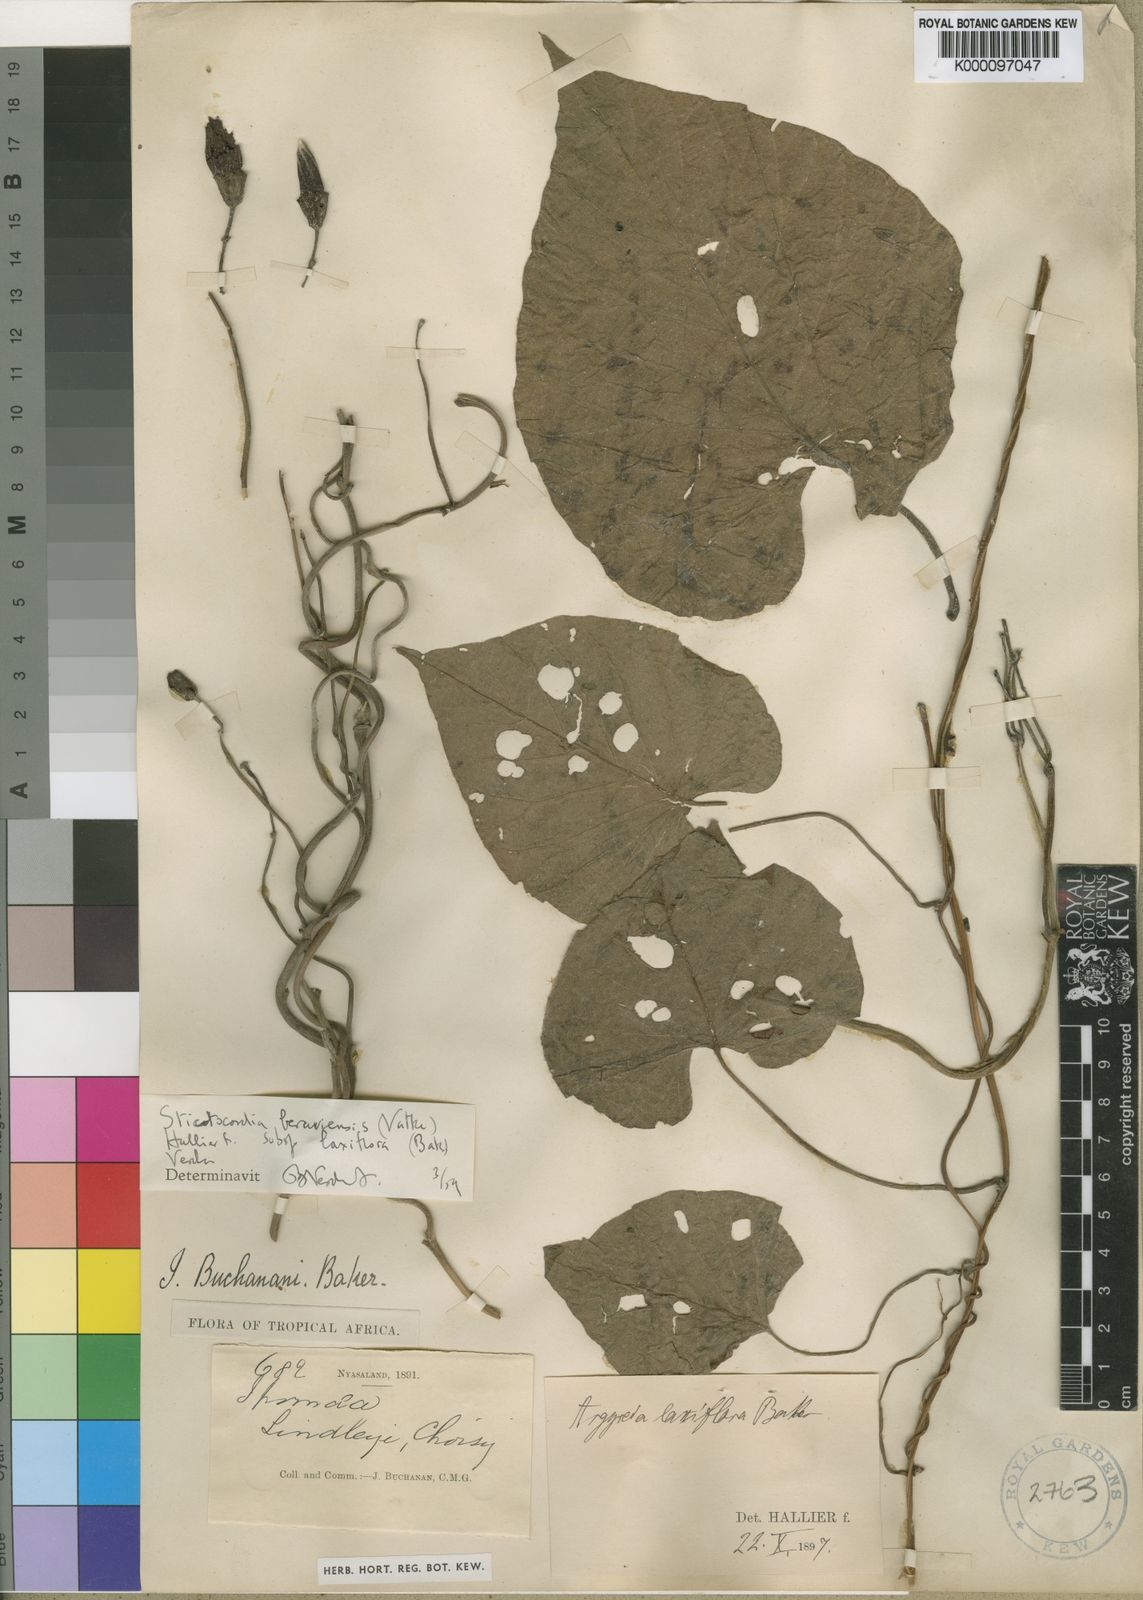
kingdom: Plantae
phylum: Tracheophyta
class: Magnoliopsida
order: Solanales
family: Convolvulaceae
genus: Stictocardia
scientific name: Stictocardia laxiflora
